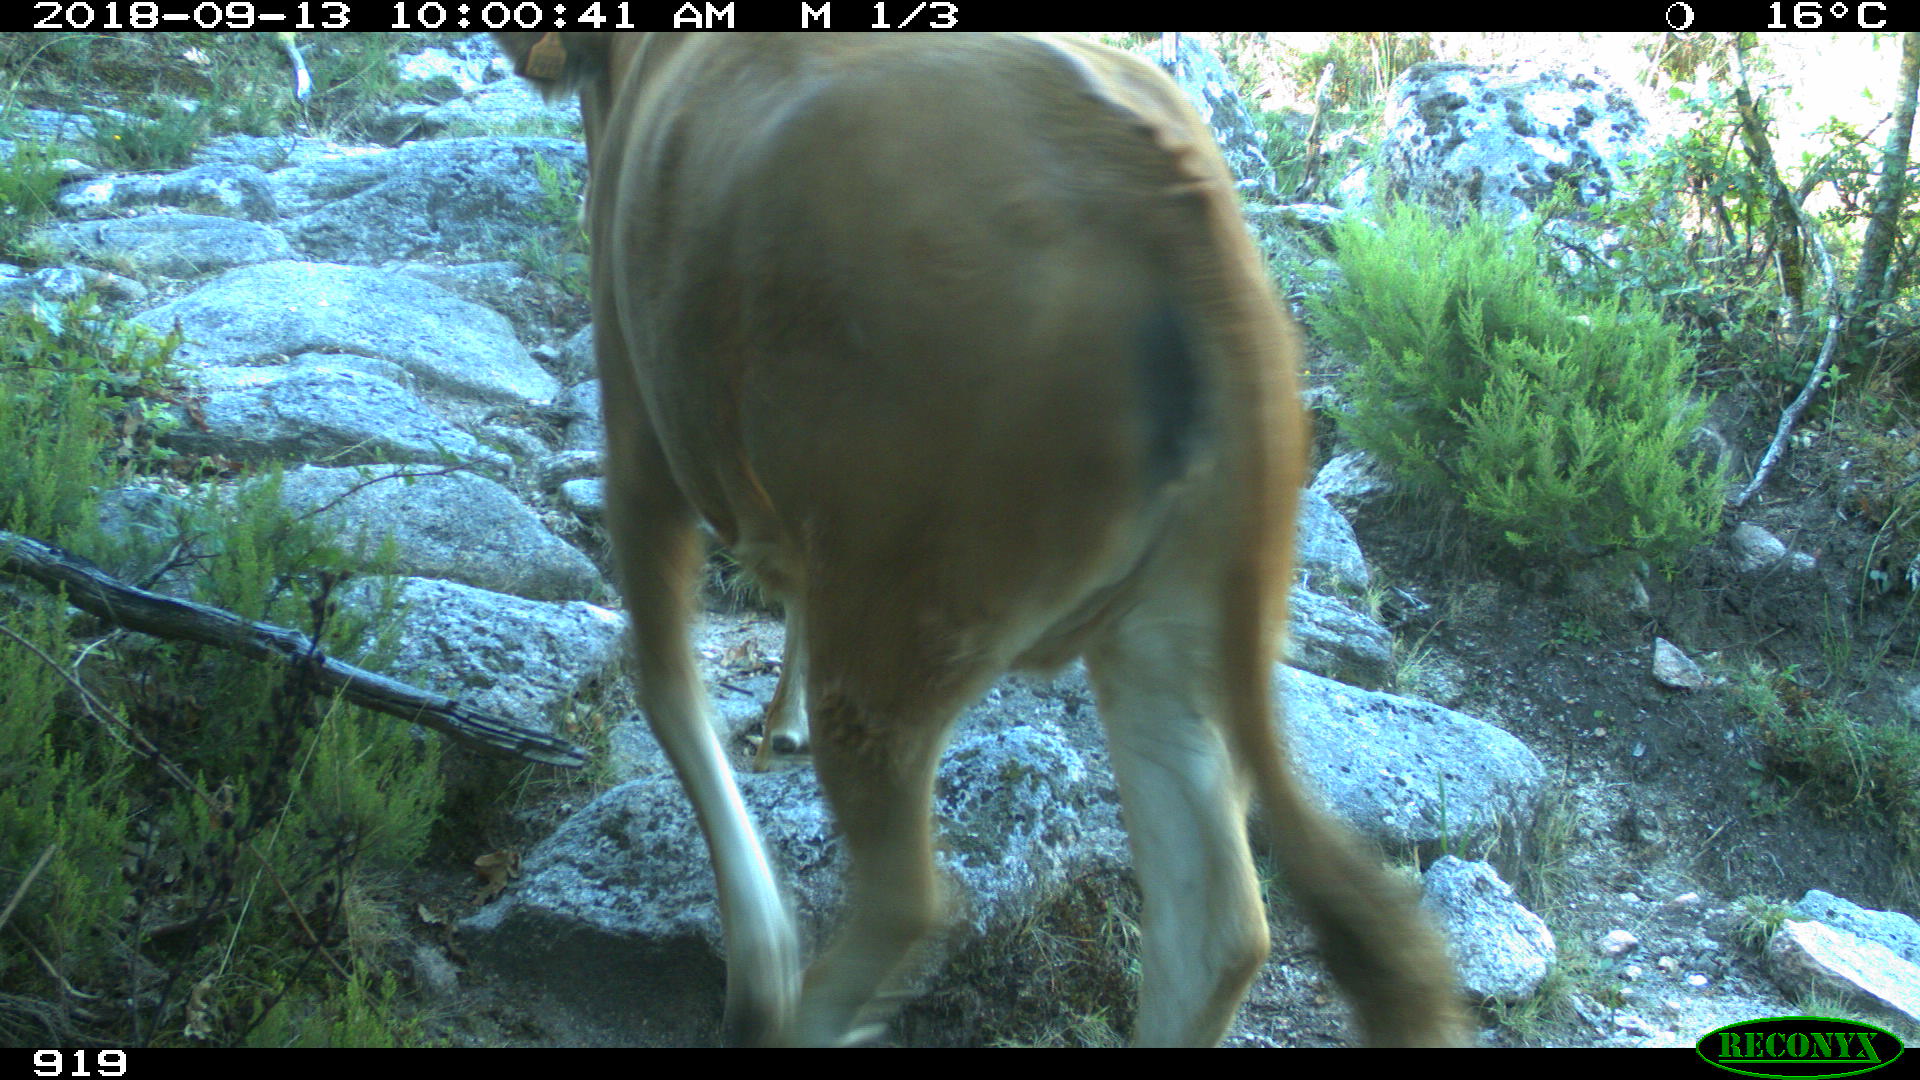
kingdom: Animalia
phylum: Chordata
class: Mammalia
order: Artiodactyla
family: Bovidae
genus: Bos
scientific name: Bos taurus
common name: Domesticated cattle
